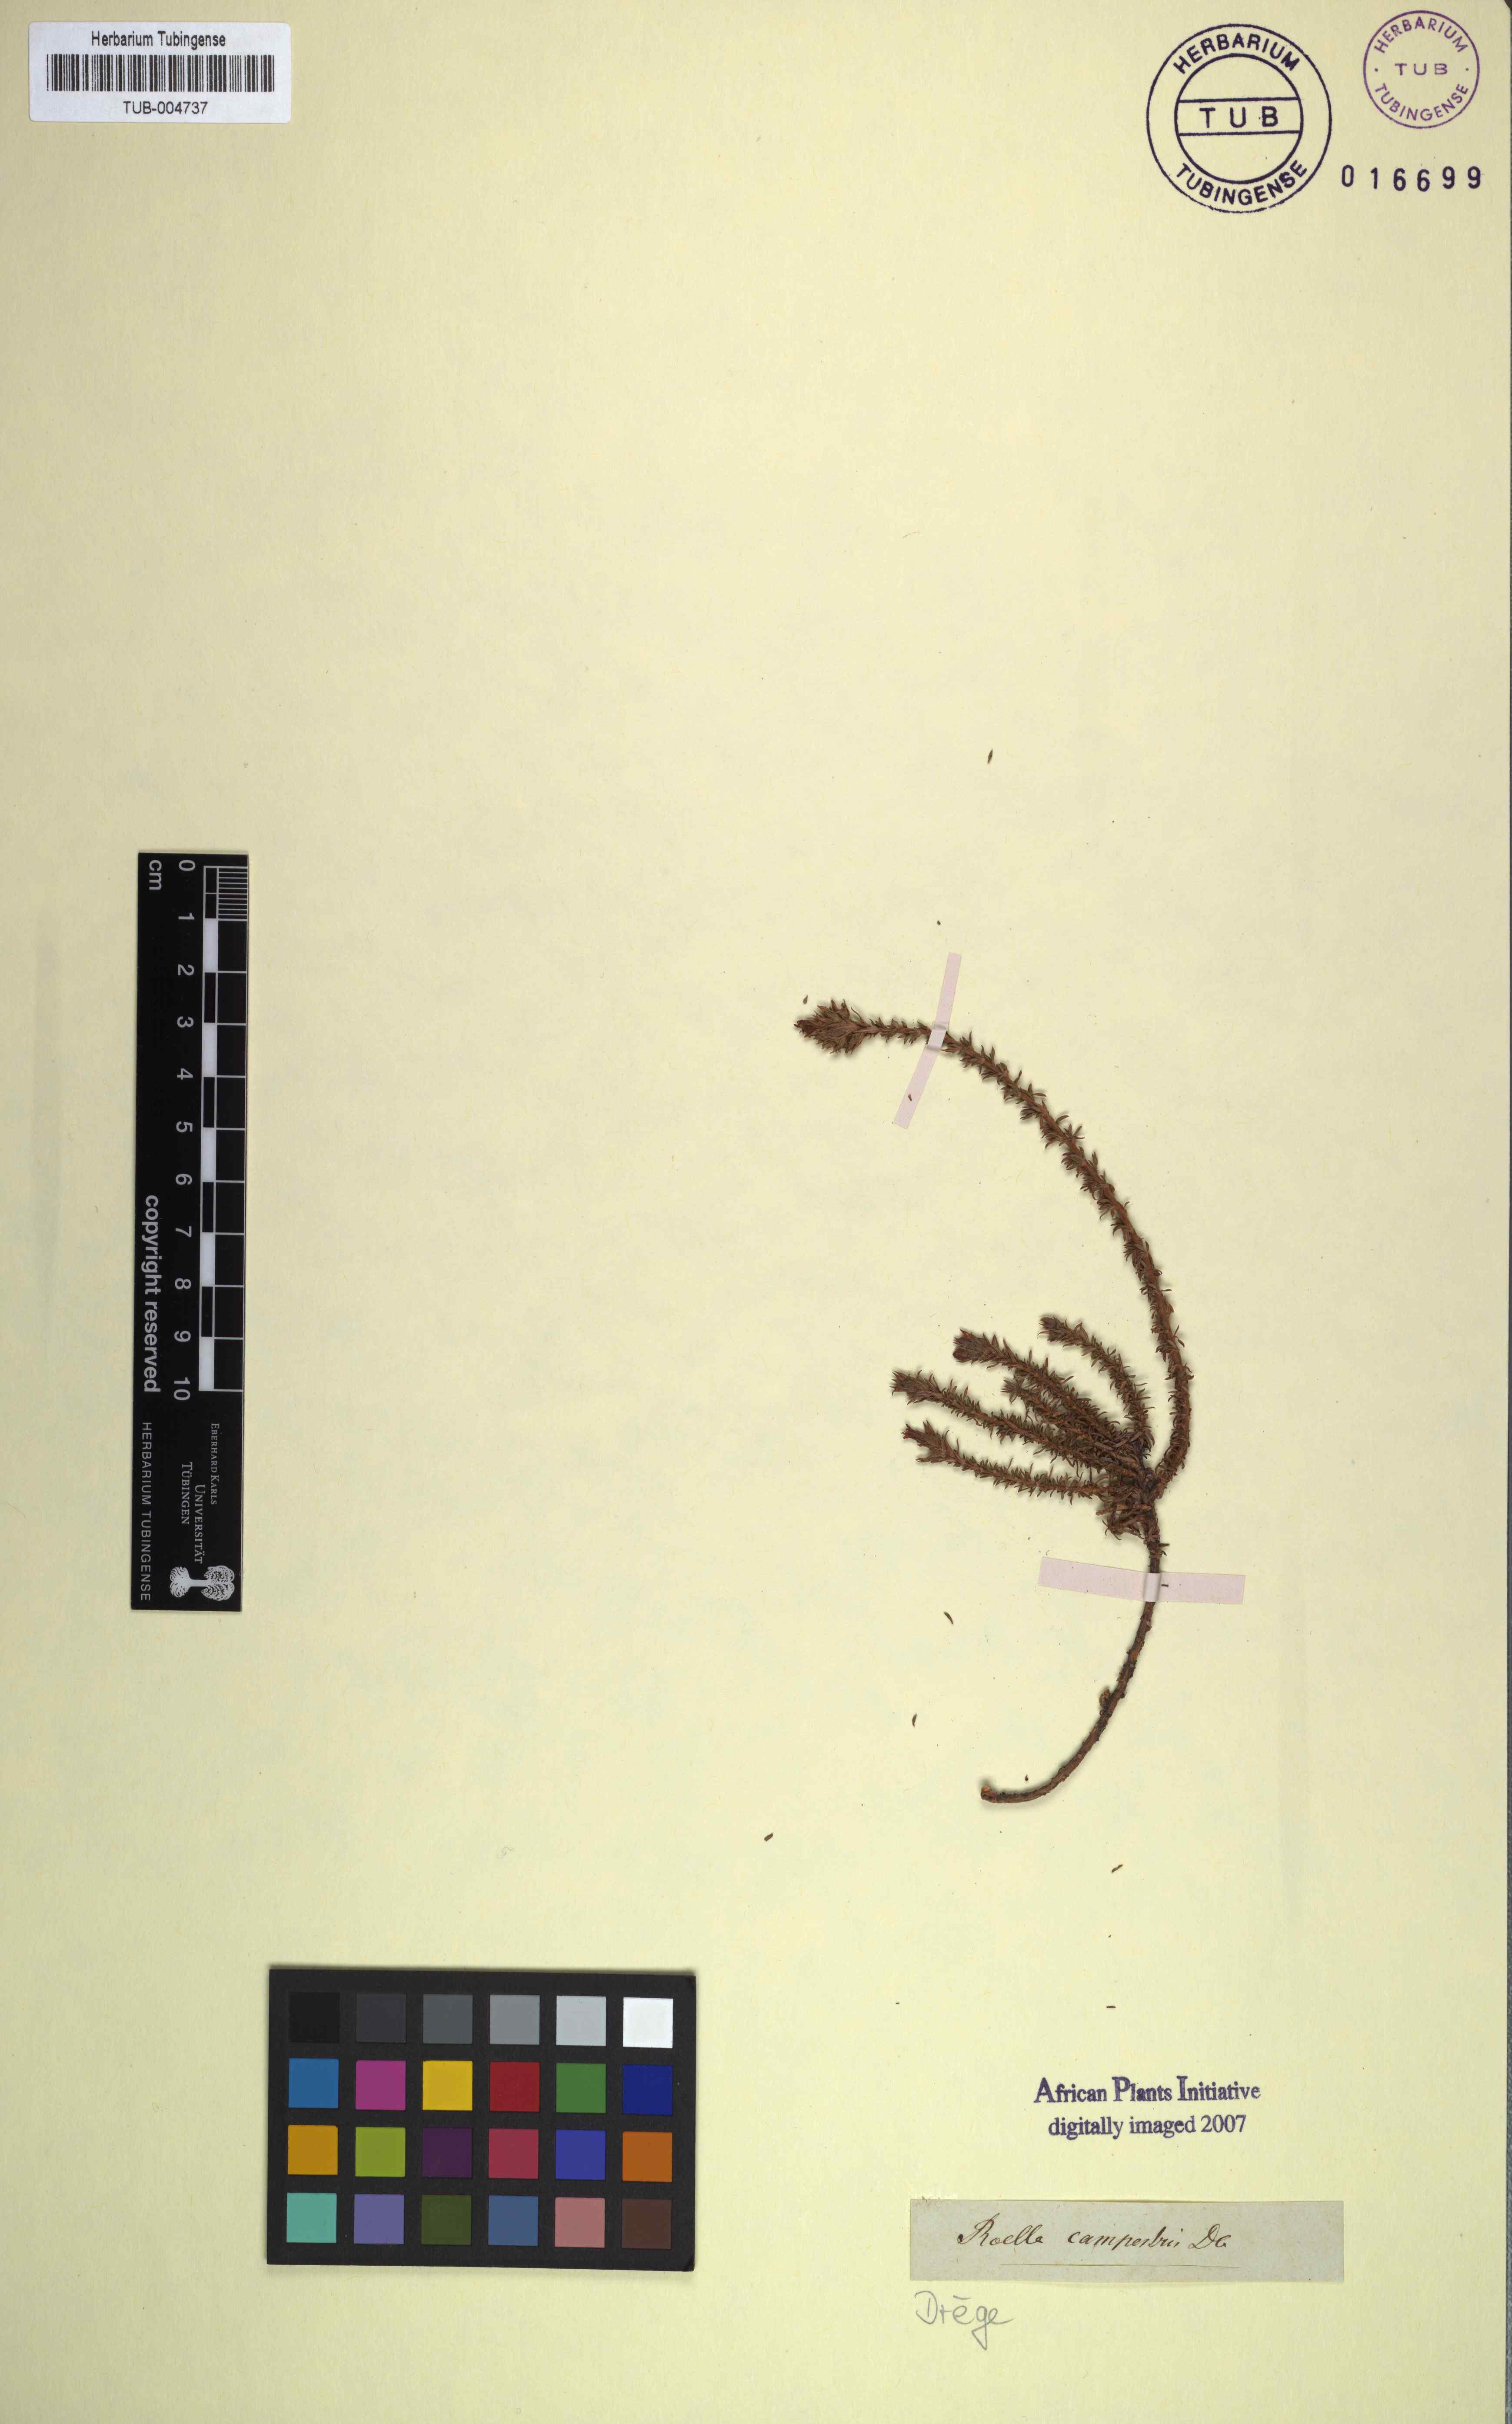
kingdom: Plantae
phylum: Tracheophyta
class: Magnoliopsida
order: Asterales
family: Campanulaceae
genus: Roella
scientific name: Roella spicata
